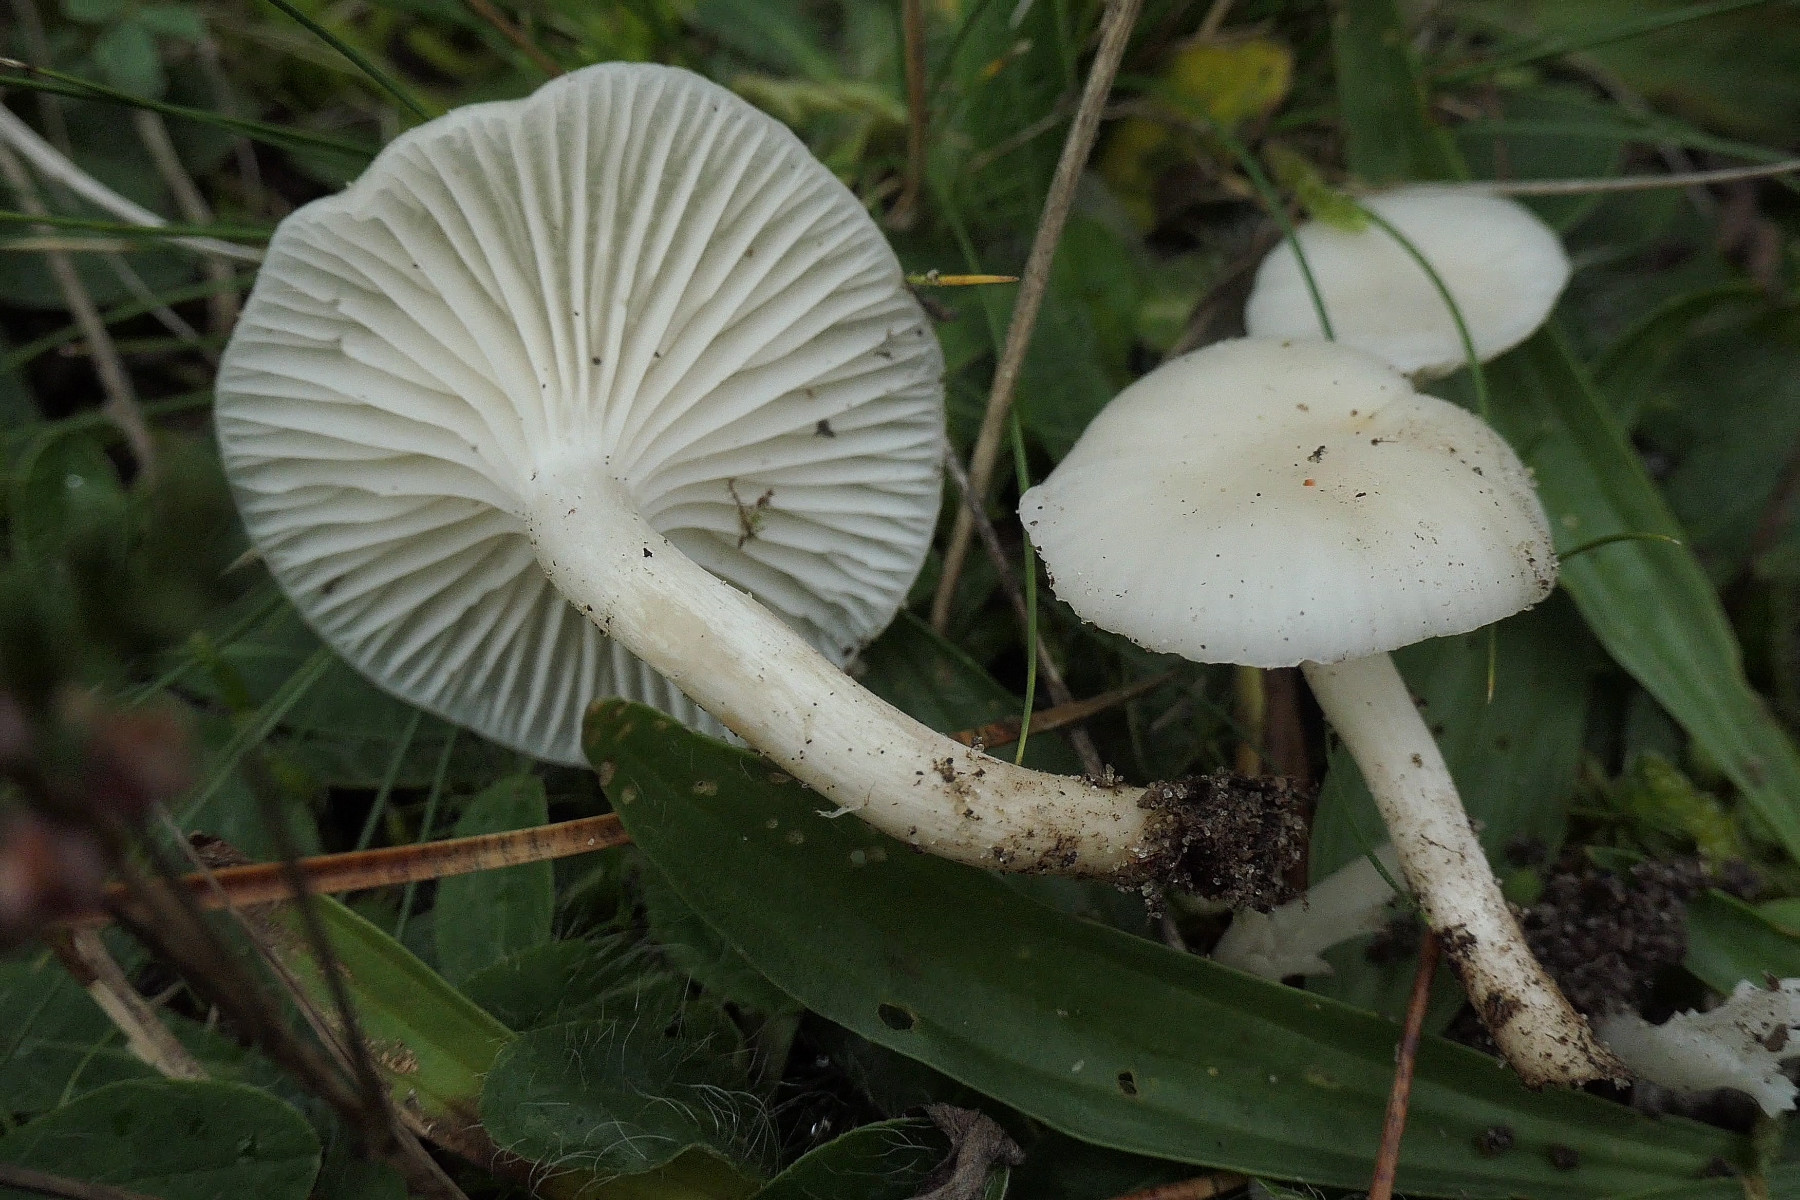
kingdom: Fungi
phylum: Basidiomycota
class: Agaricomycetes
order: Agaricales
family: Hygrophoraceae
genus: Cuphophyllus
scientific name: Cuphophyllus virgineus
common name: snehvid vokshat
